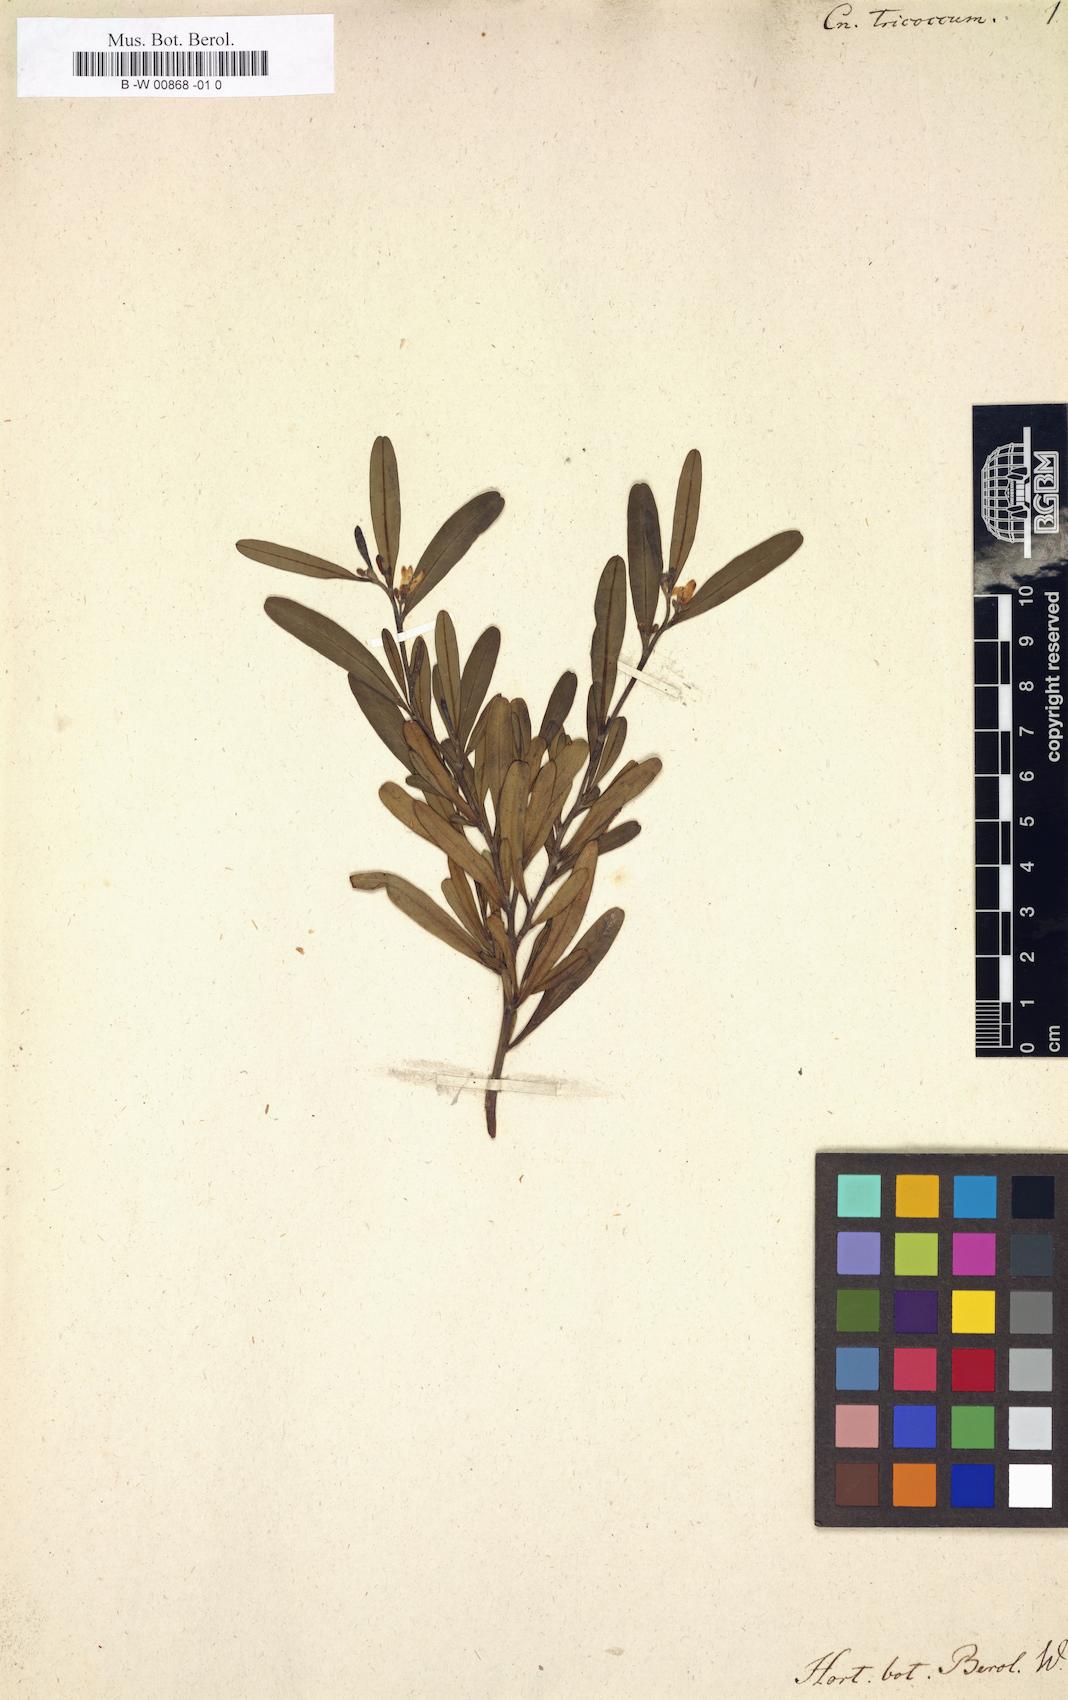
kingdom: Plantae
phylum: Tracheophyta
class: Magnoliopsida
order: Sapindales
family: Rutaceae
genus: Cneorum
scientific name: Cneorum tricoccon
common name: Spurge olive
